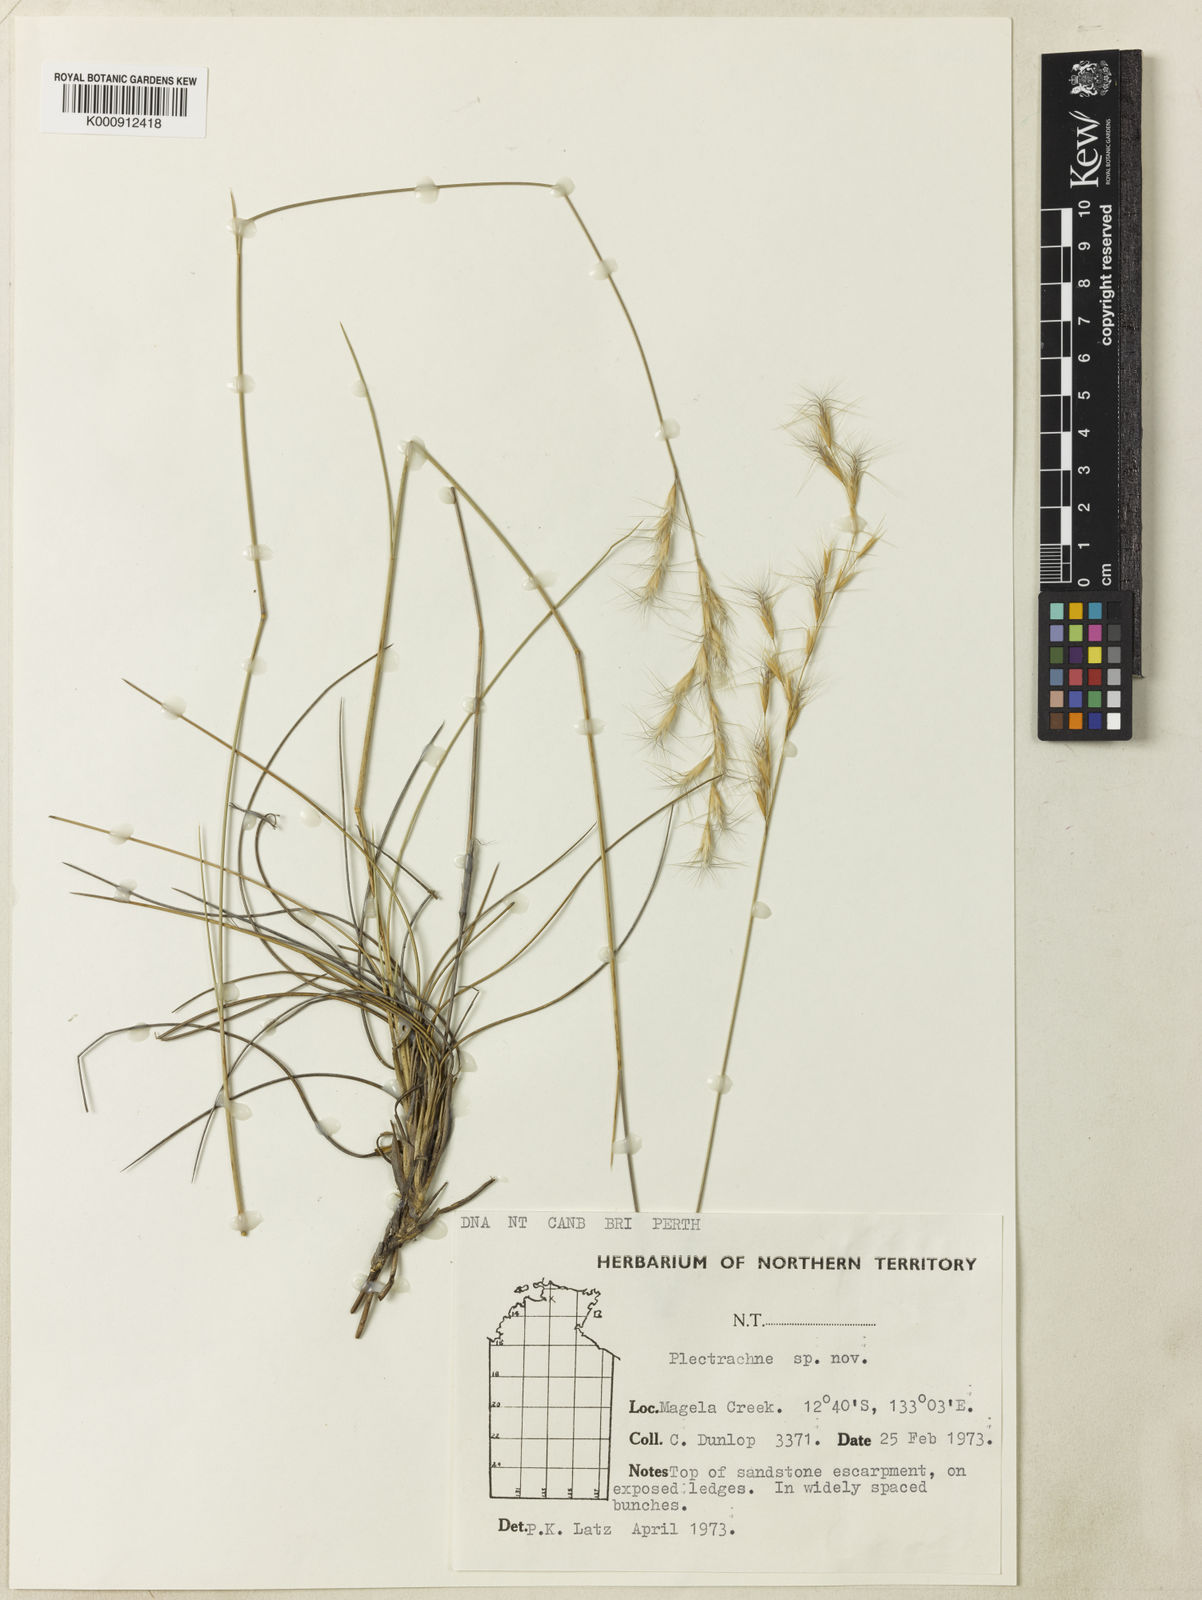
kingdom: Plantae
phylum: Tracheophyta
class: Liliopsida
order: Poales
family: Poaceae
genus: Triodia
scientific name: Triodia aristiglumis
